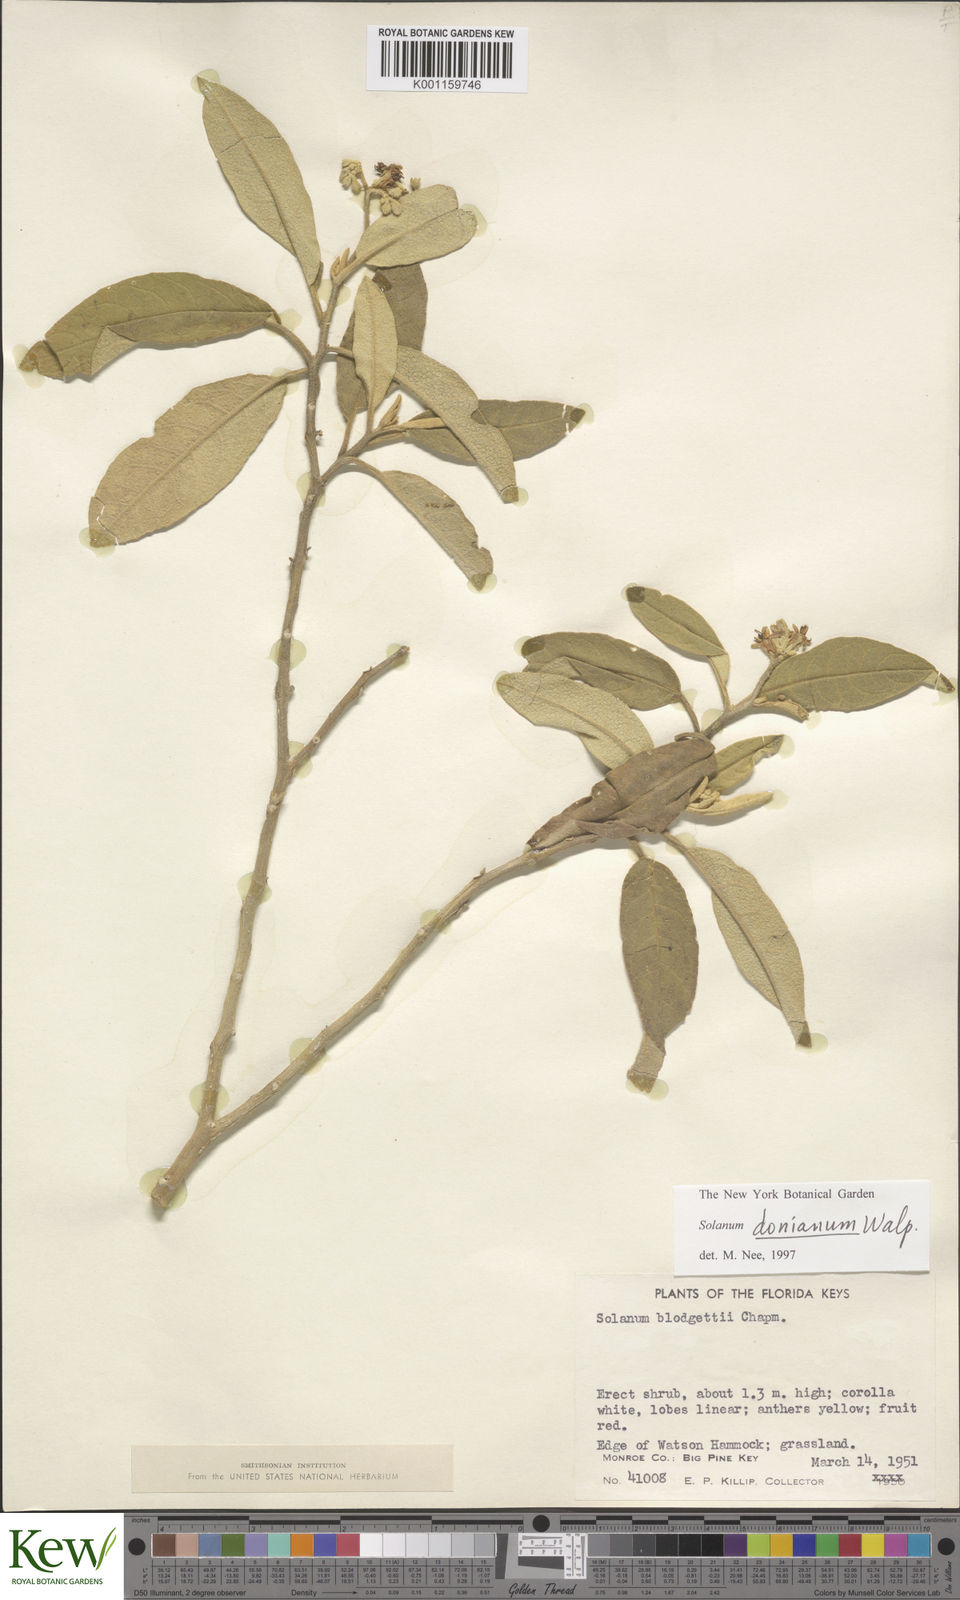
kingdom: Plantae
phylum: Tracheophyta
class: Magnoliopsida
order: Solanales
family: Solanaceae
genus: Solanum
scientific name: Solanum donianum
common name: Mullein nightshade
